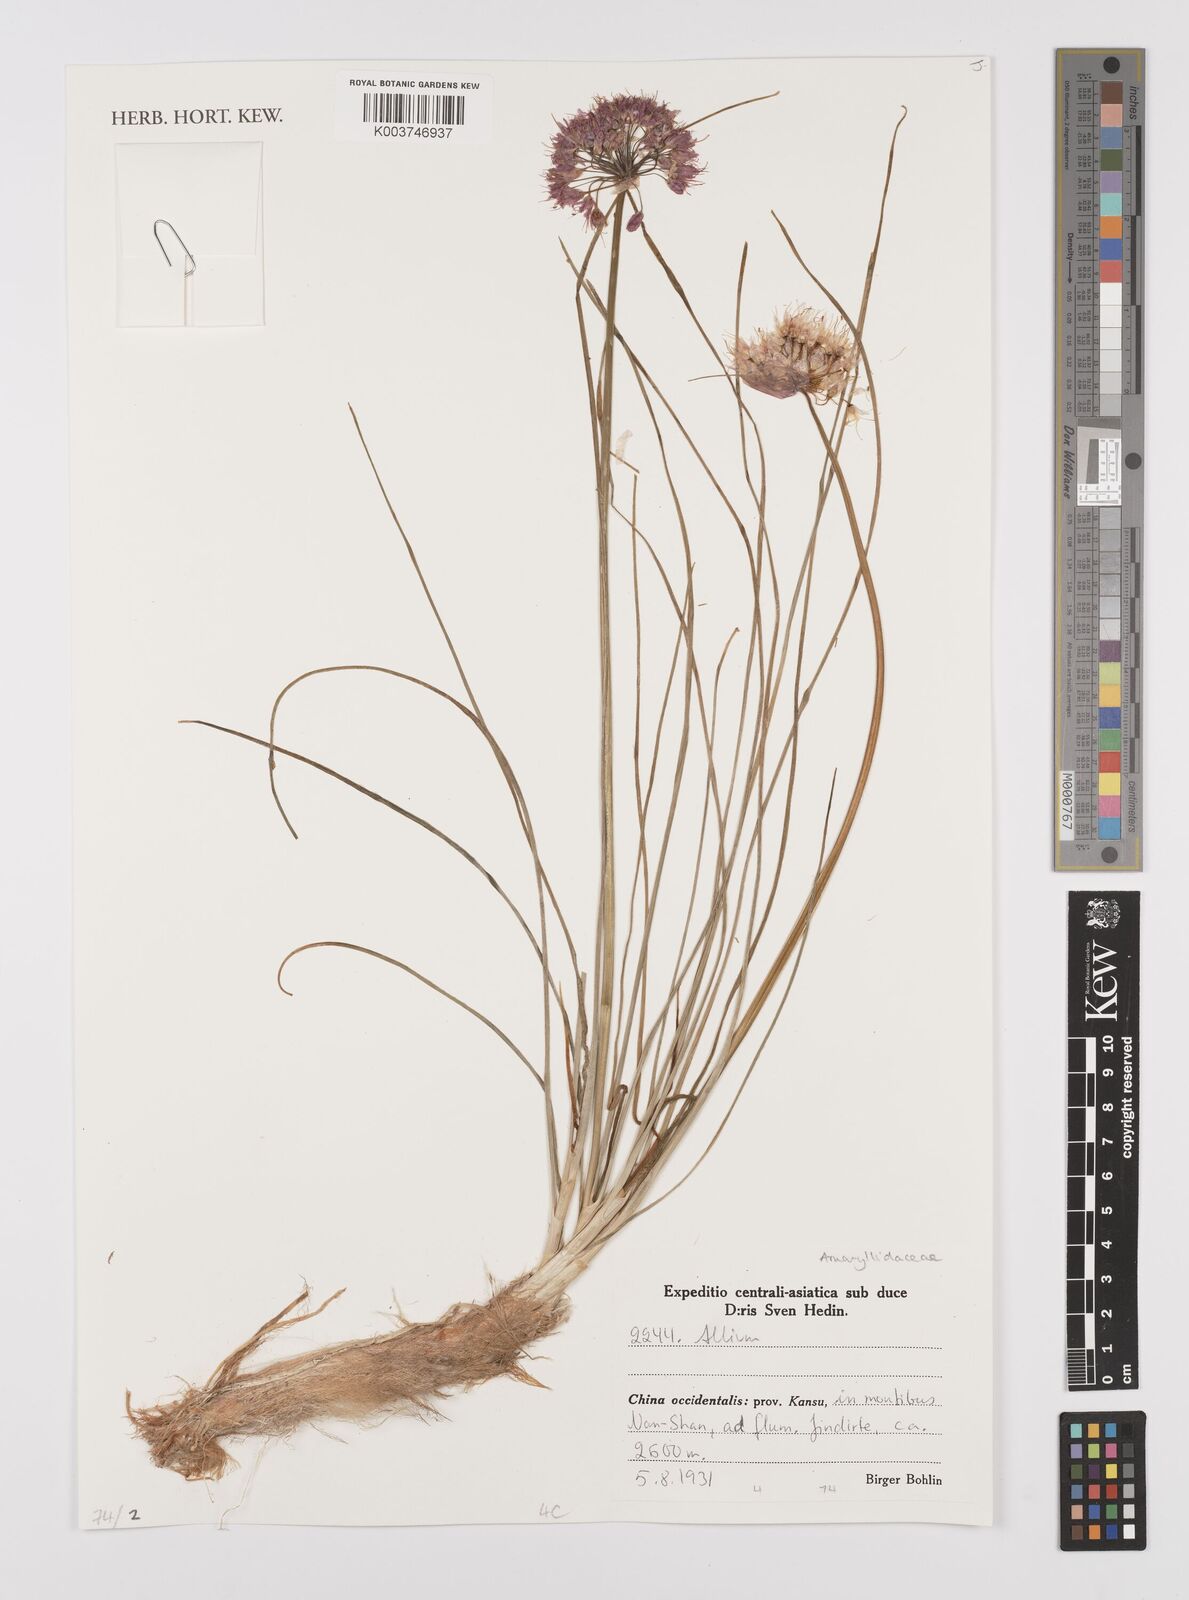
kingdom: Plantae
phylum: Tracheophyta
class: Liliopsida
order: Asparagales
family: Amaryllidaceae
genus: Allium
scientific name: Allium
